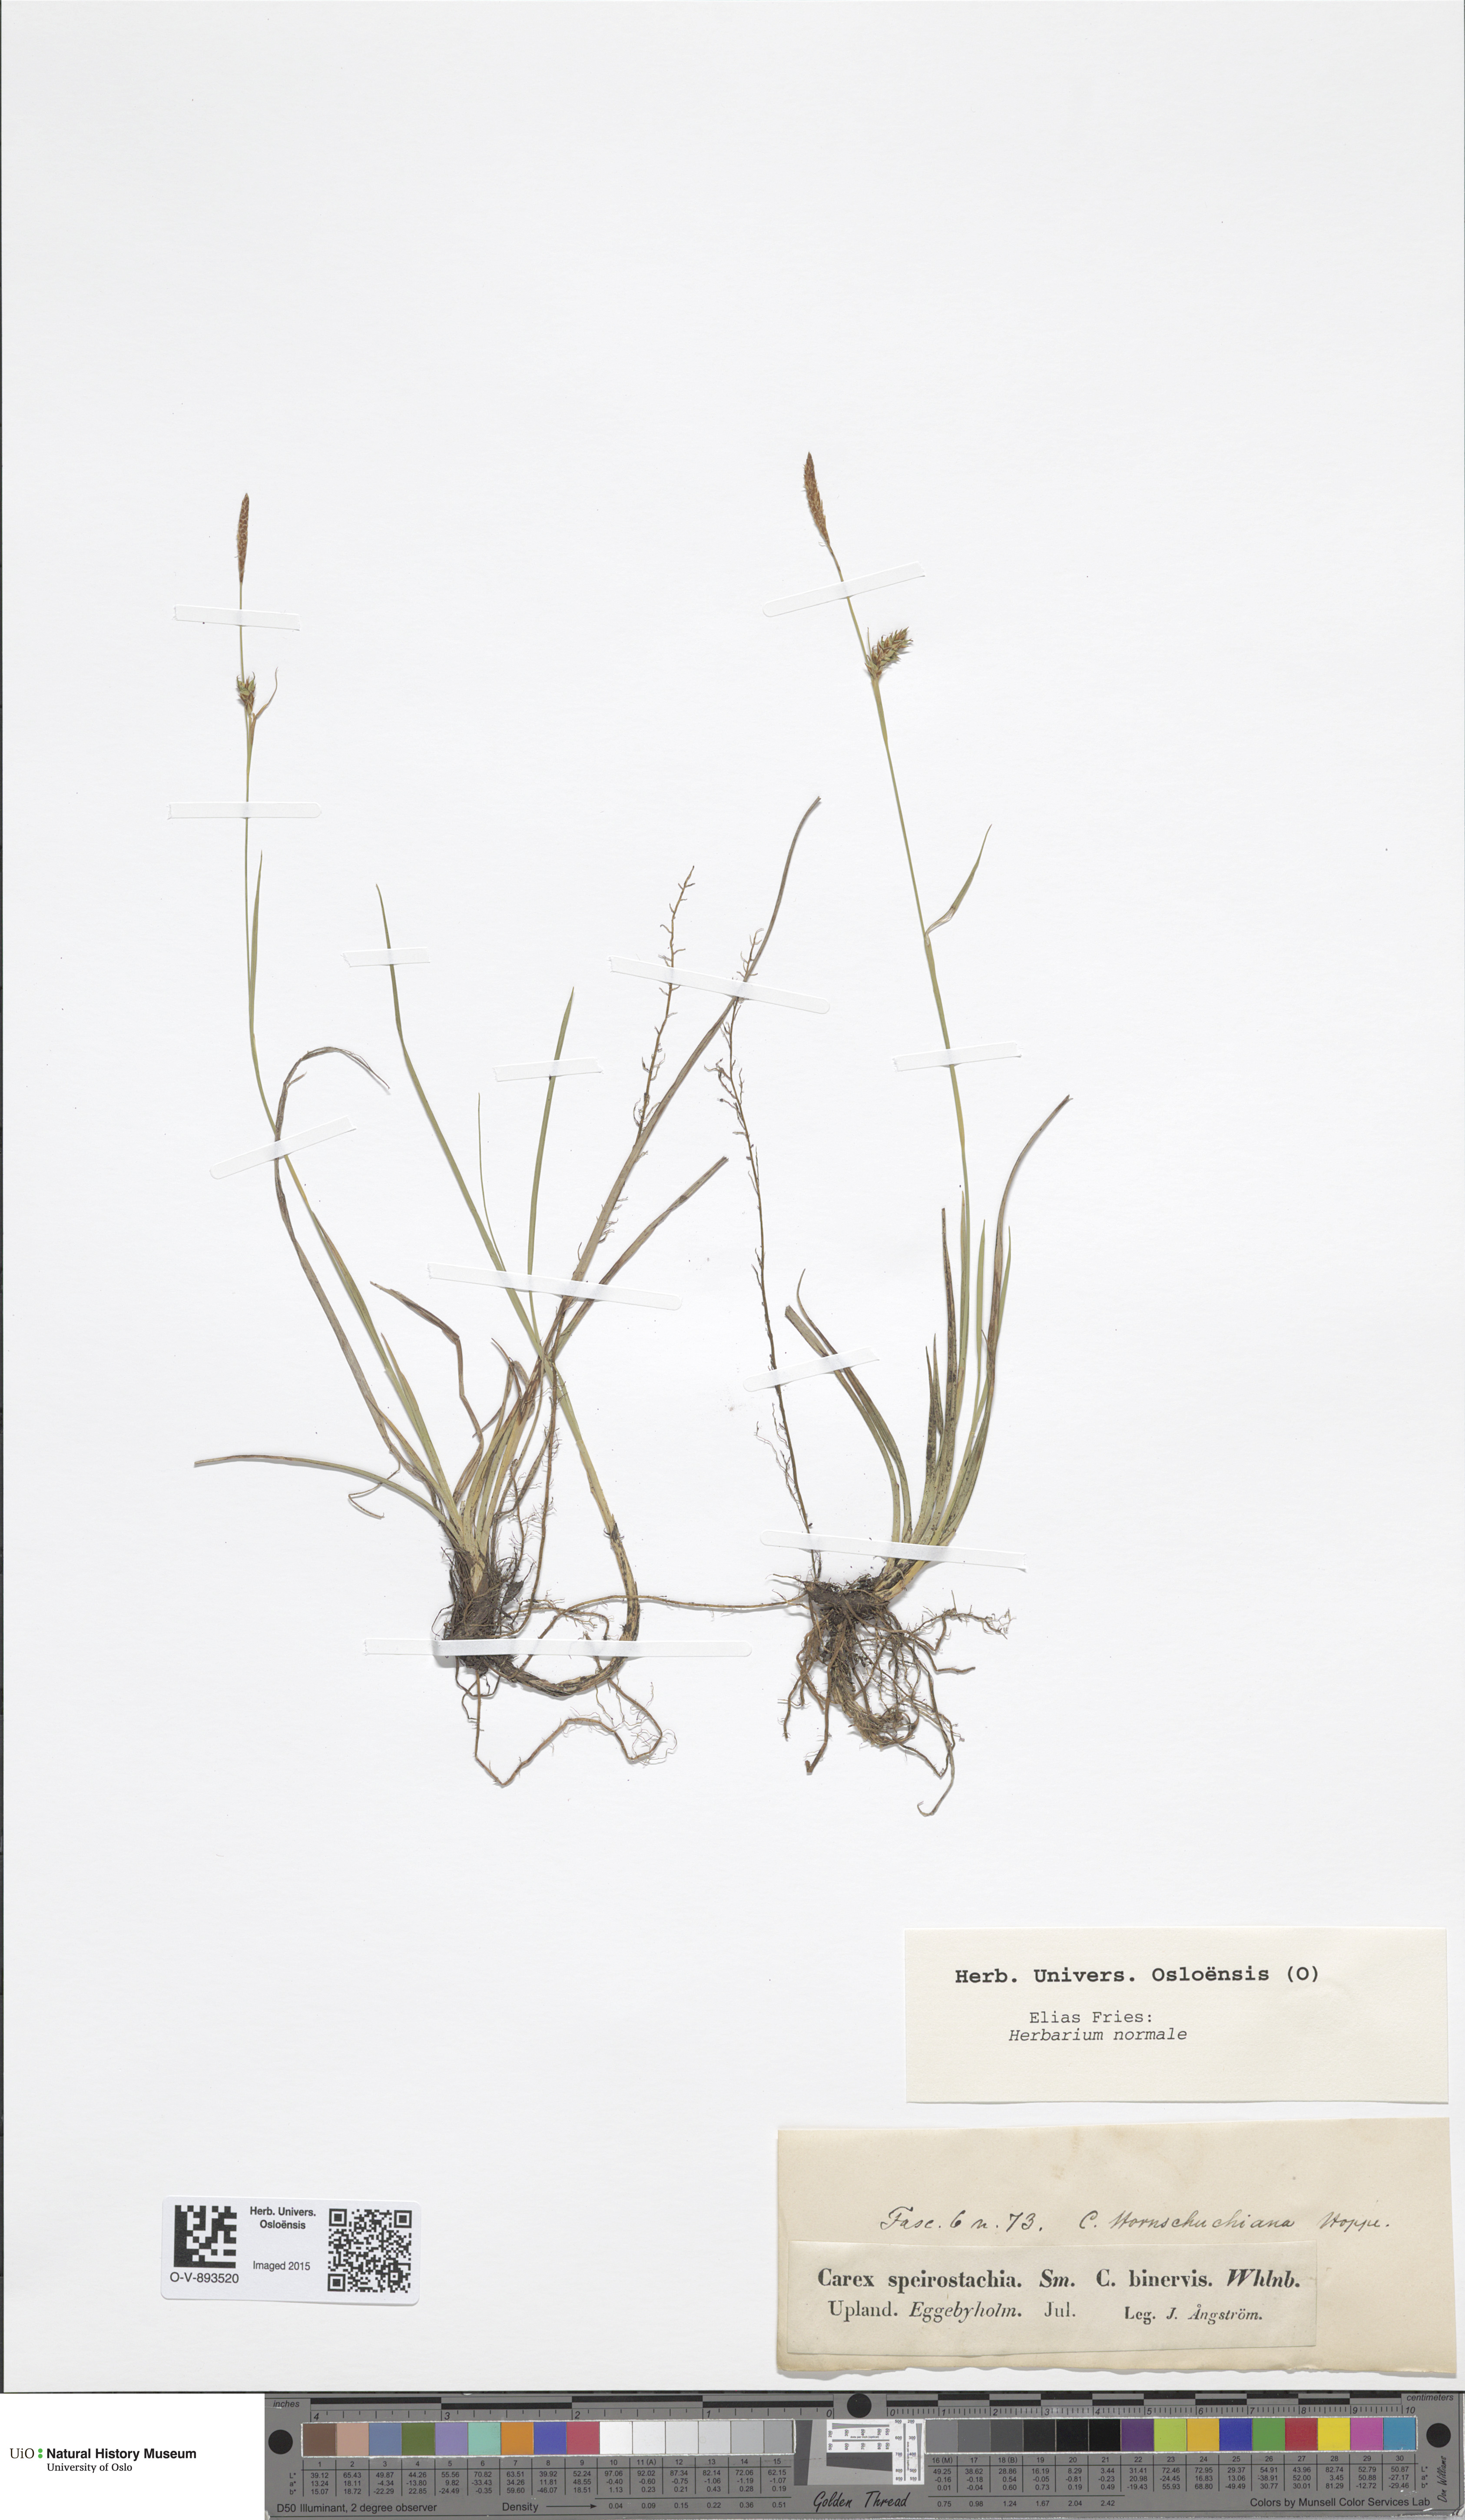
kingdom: Plantae
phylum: Tracheophyta
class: Liliopsida
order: Poales
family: Cyperaceae
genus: Carex
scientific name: Carex binervis
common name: Green-ribbed sedge
